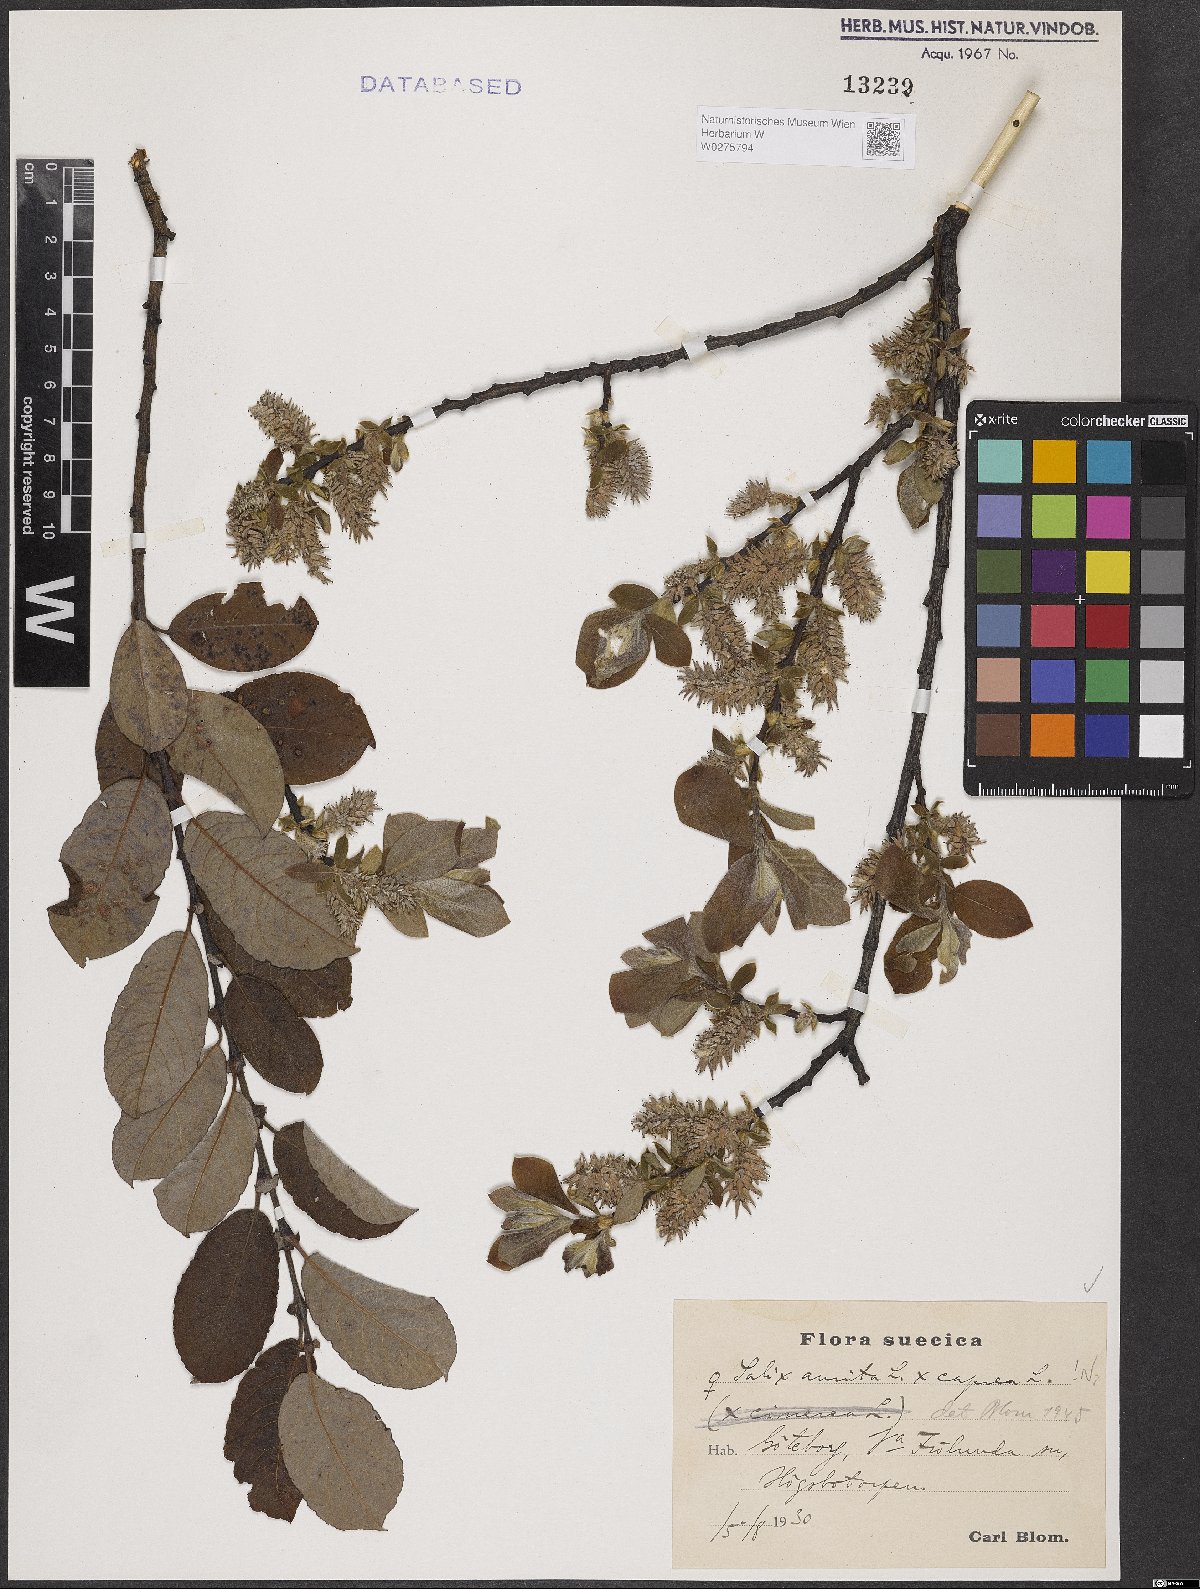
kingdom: Plantae
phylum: Tracheophyta
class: Magnoliopsida
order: Malpighiales
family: Salicaceae
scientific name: Salicaceae
